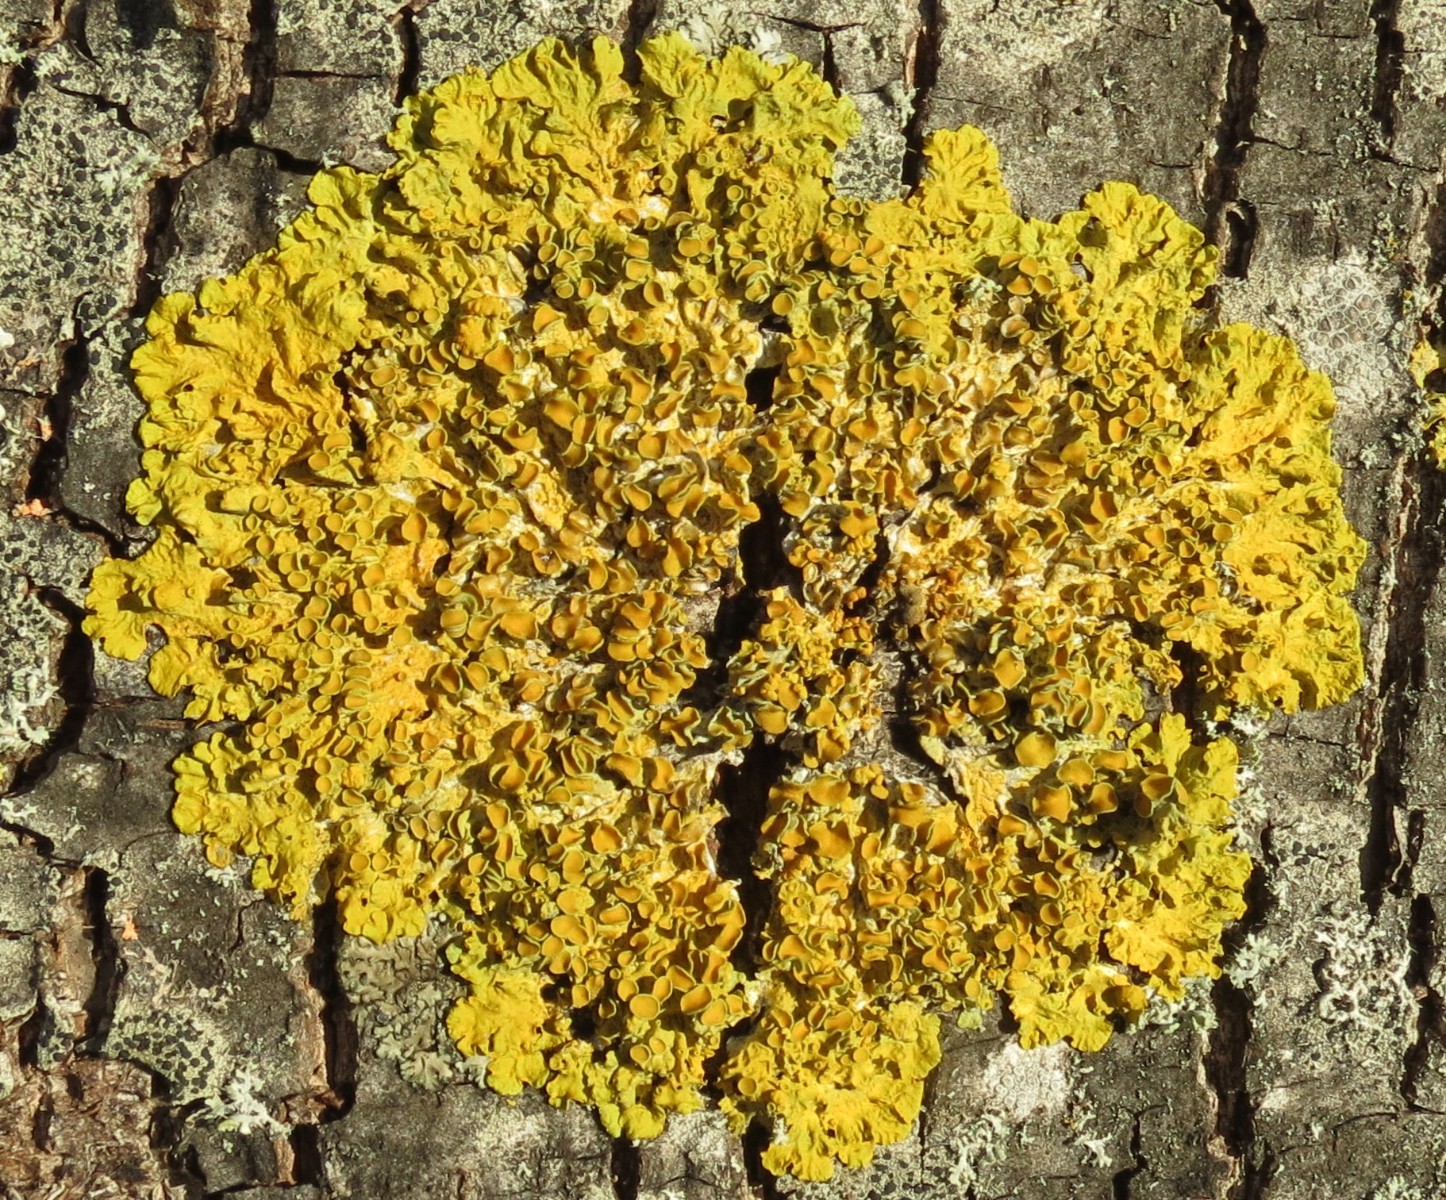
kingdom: Fungi
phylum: Ascomycota
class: Lecanoromycetes
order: Teloschistales
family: Teloschistaceae
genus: Xanthoria
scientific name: Xanthoria parietina
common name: almindelig væggelav
